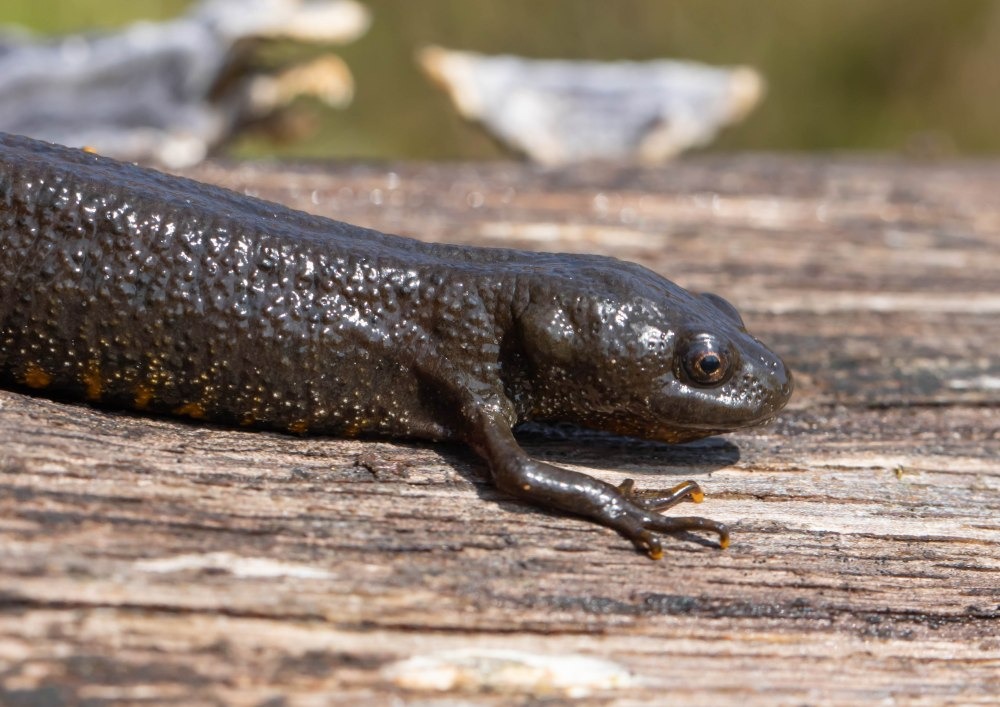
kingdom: Animalia
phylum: Chordata
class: Amphibia
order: Caudata
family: Salamandridae
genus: Triturus
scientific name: Triturus cristatus
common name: Stor vandsalamander
